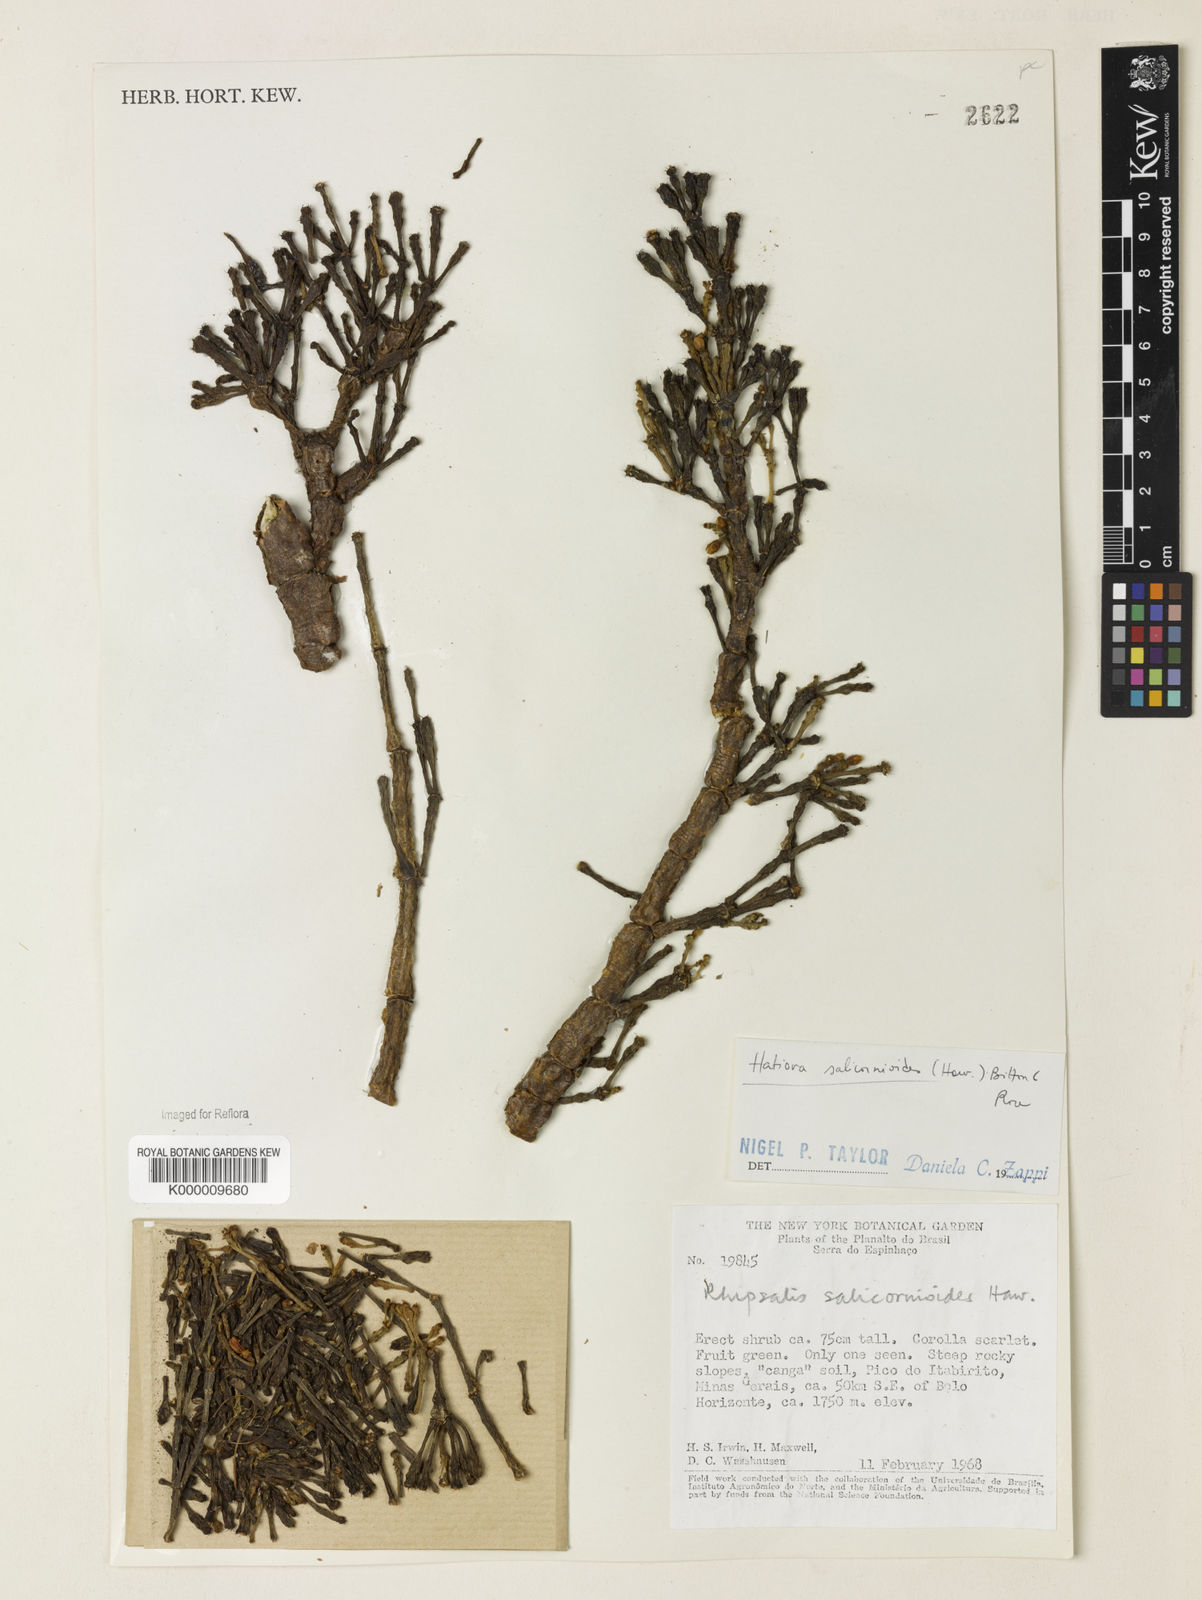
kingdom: Plantae
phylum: Tracheophyta
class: Magnoliopsida
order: Caryophyllales
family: Cactaceae
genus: Hatiora
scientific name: Hatiora
